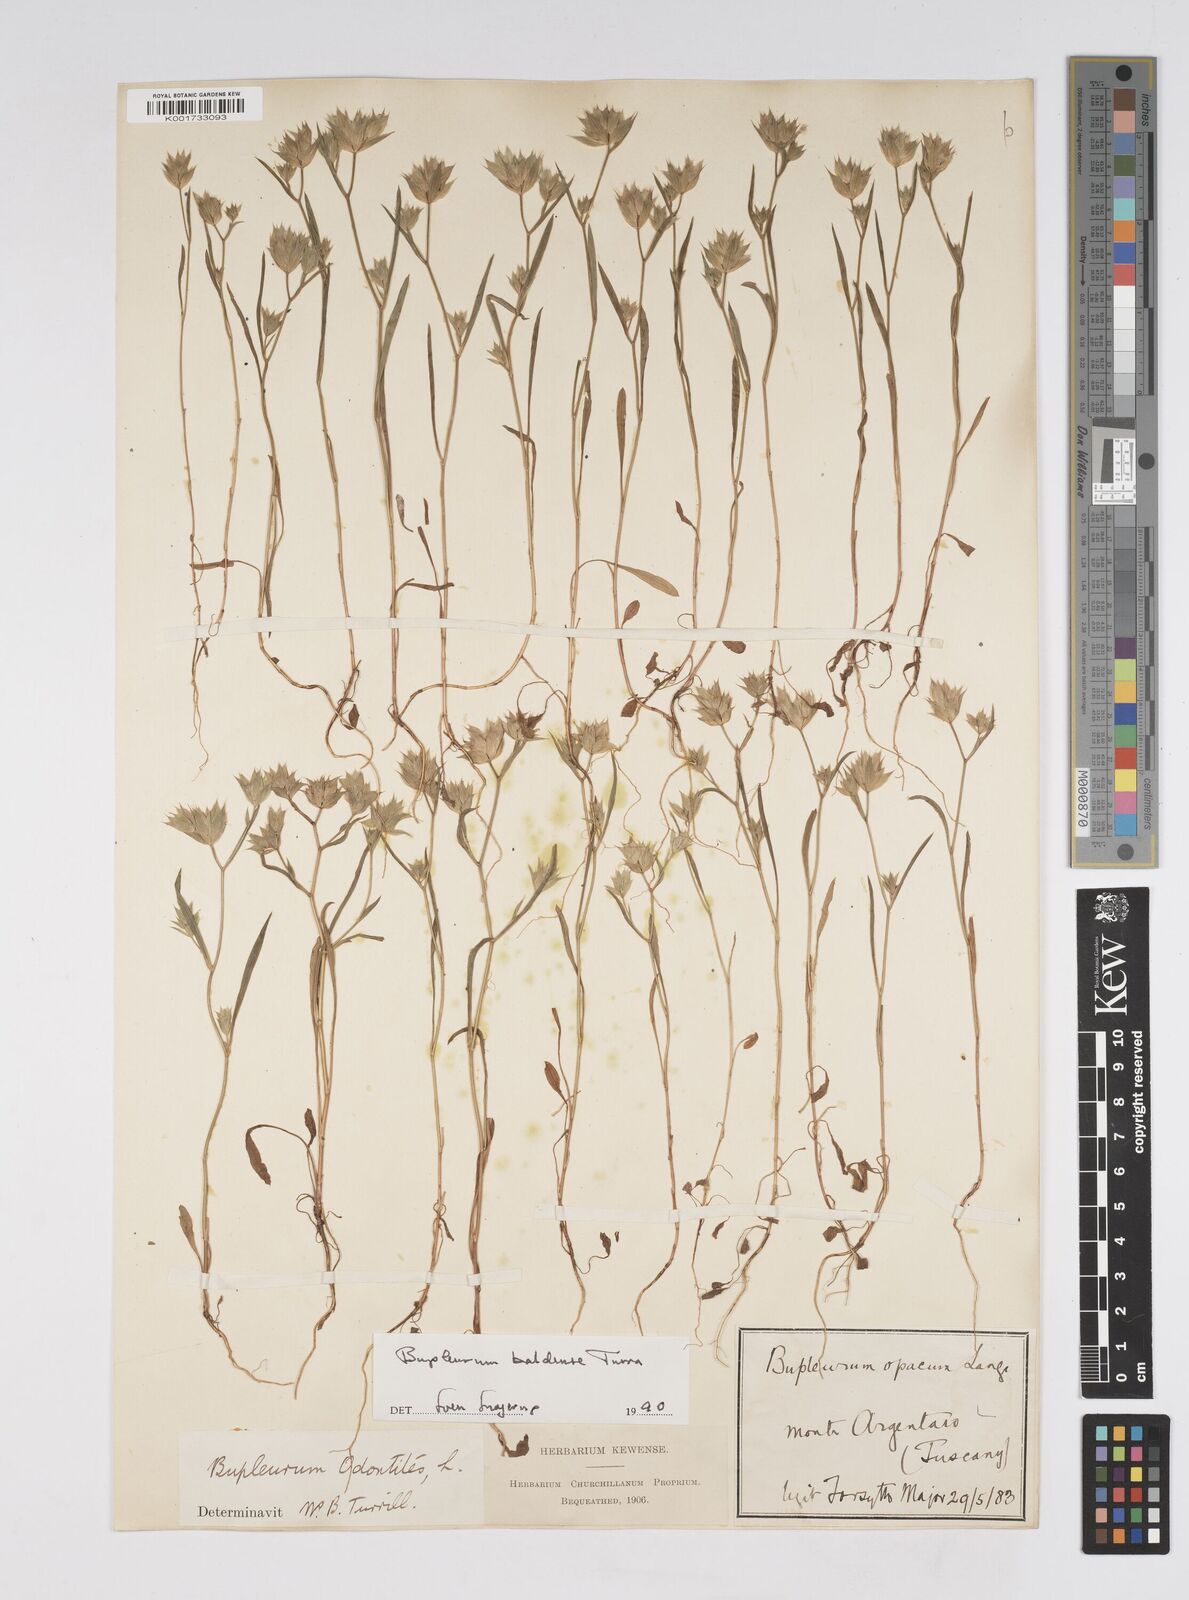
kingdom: Plantae
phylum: Tracheophyta
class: Magnoliopsida
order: Apiales
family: Apiaceae
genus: Bupleurum
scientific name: Bupleurum baldense
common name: Small hare's-ear
